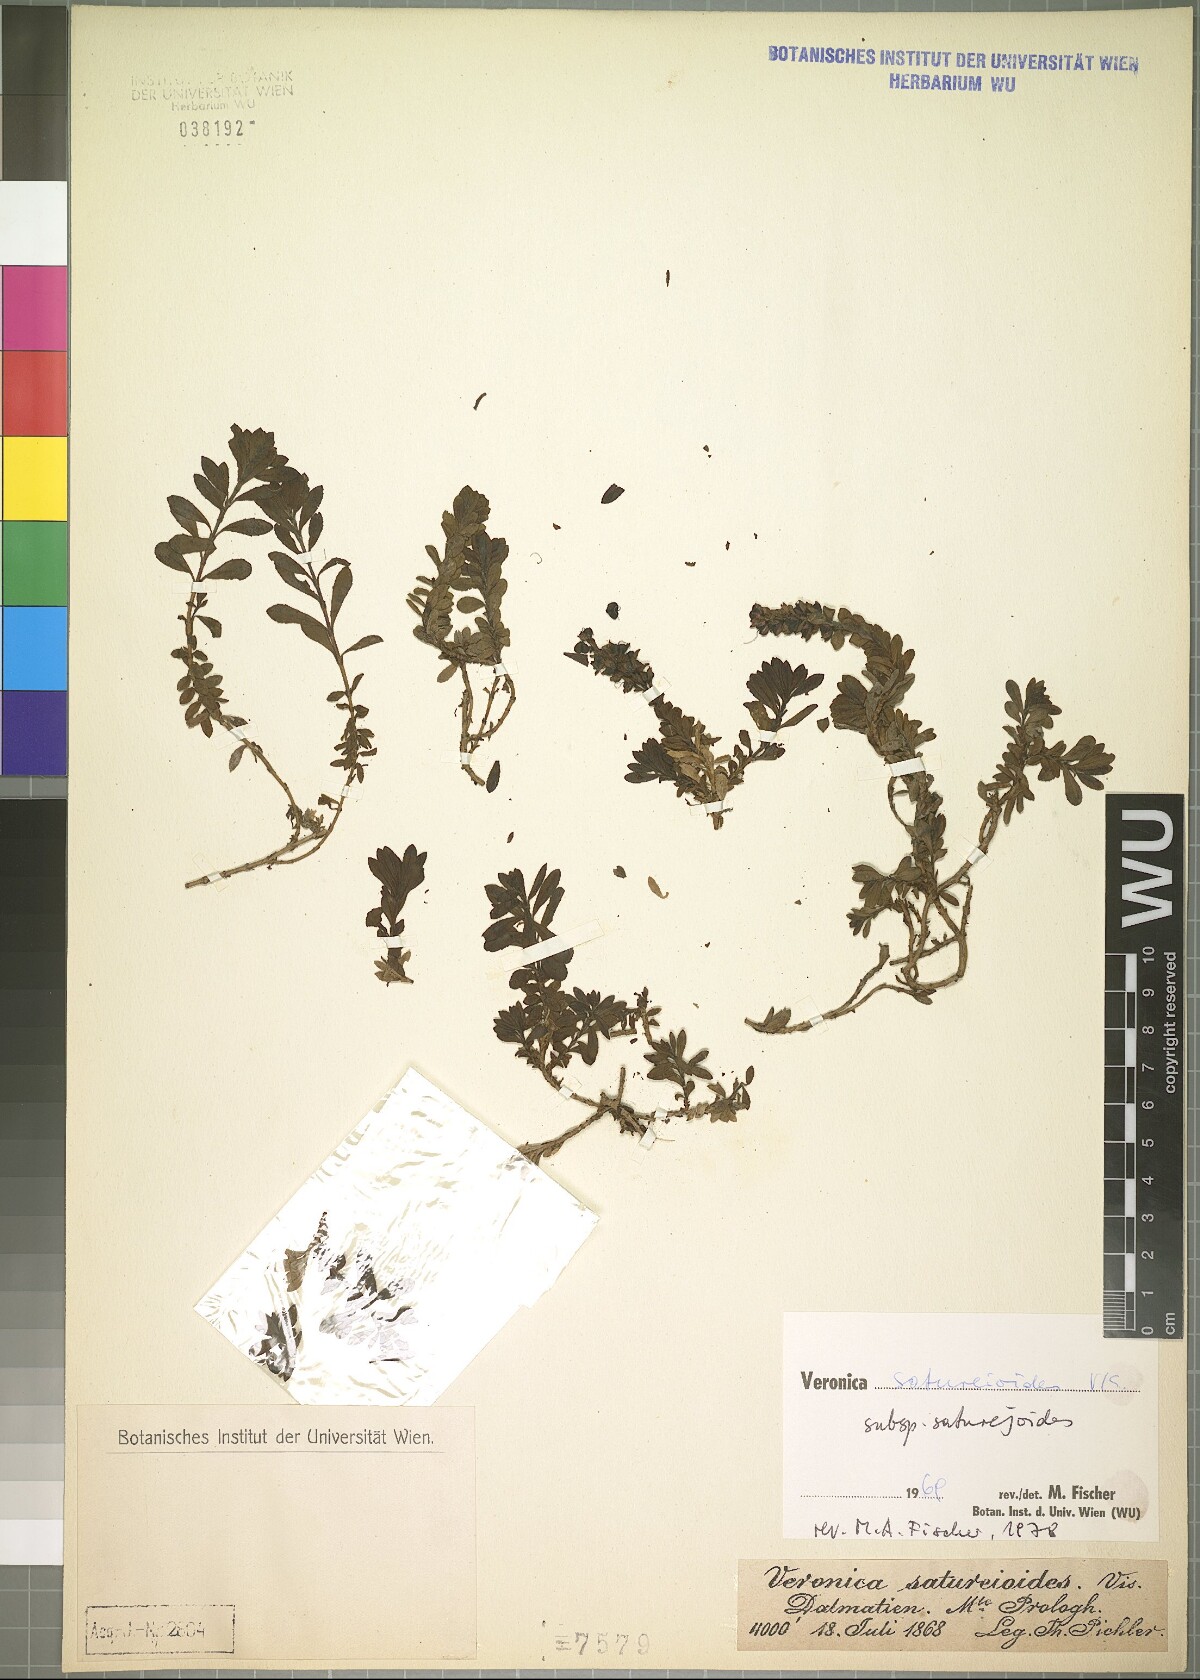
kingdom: Plantae
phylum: Tracheophyta
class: Magnoliopsida
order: Lamiales
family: Plantaginaceae
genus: Veronica
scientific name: Veronica saturejoides
